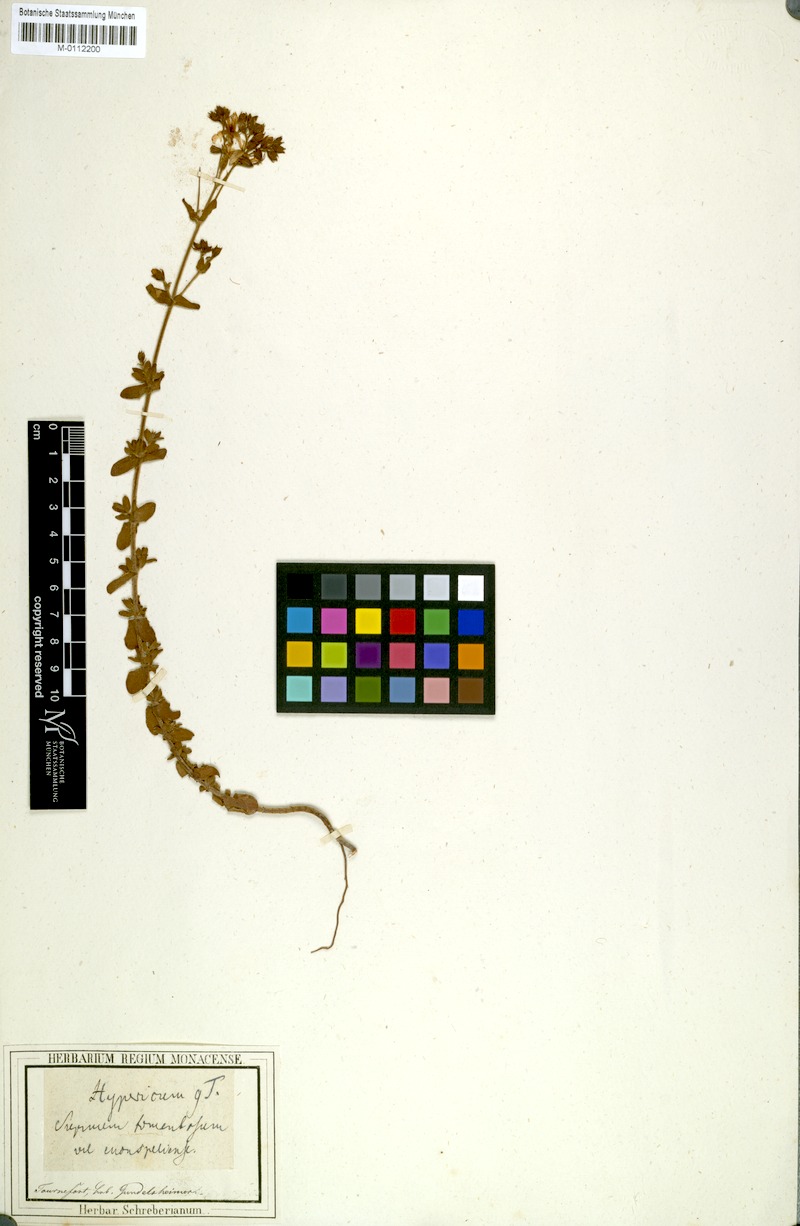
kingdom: Plantae
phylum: Tracheophyta
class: Magnoliopsida
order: Malpighiales
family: Hypericaceae
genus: Hypericum
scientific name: Hypericum tomentosum
